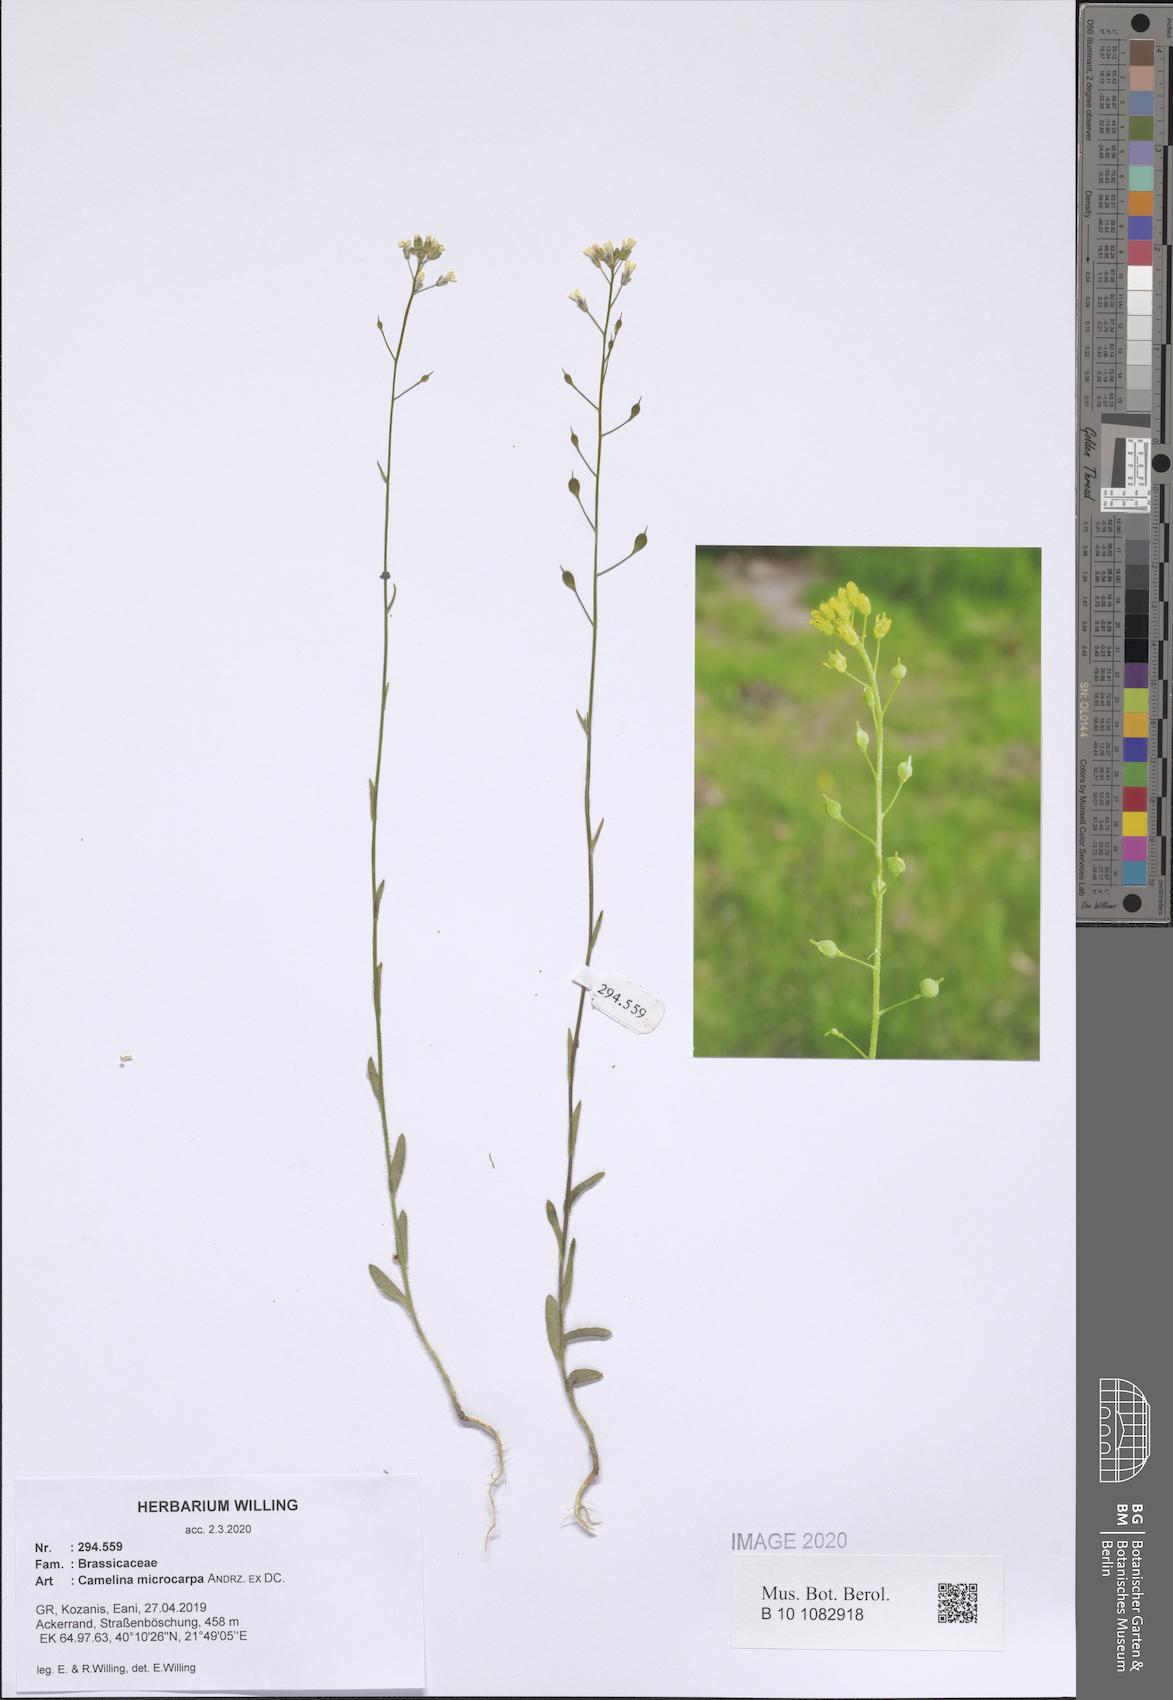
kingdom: Plantae
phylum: Tracheophyta
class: Magnoliopsida
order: Brassicales
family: Brassicaceae
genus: Camelina
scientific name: Camelina microcarpa
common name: Lesser gold-of-pleasure
